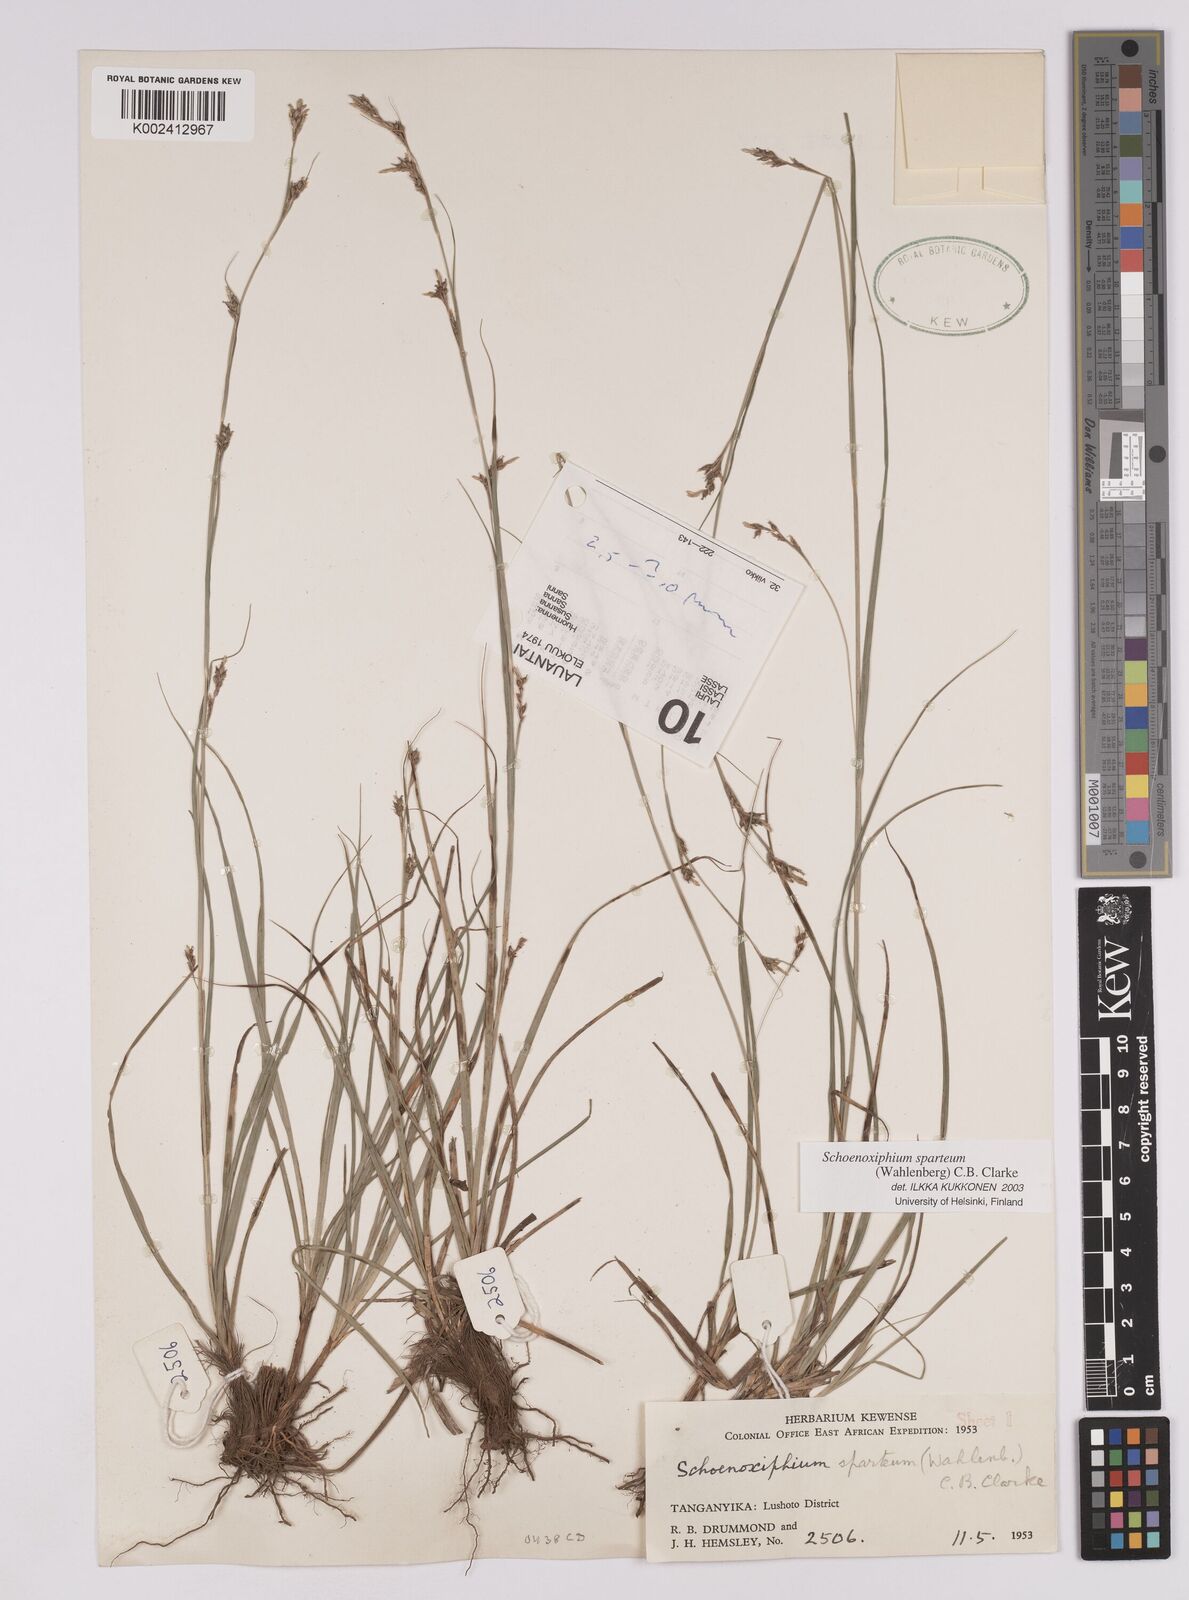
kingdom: Plantae
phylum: Tracheophyta
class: Liliopsida
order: Poales
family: Cyperaceae
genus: Carex
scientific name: Carex spartea
